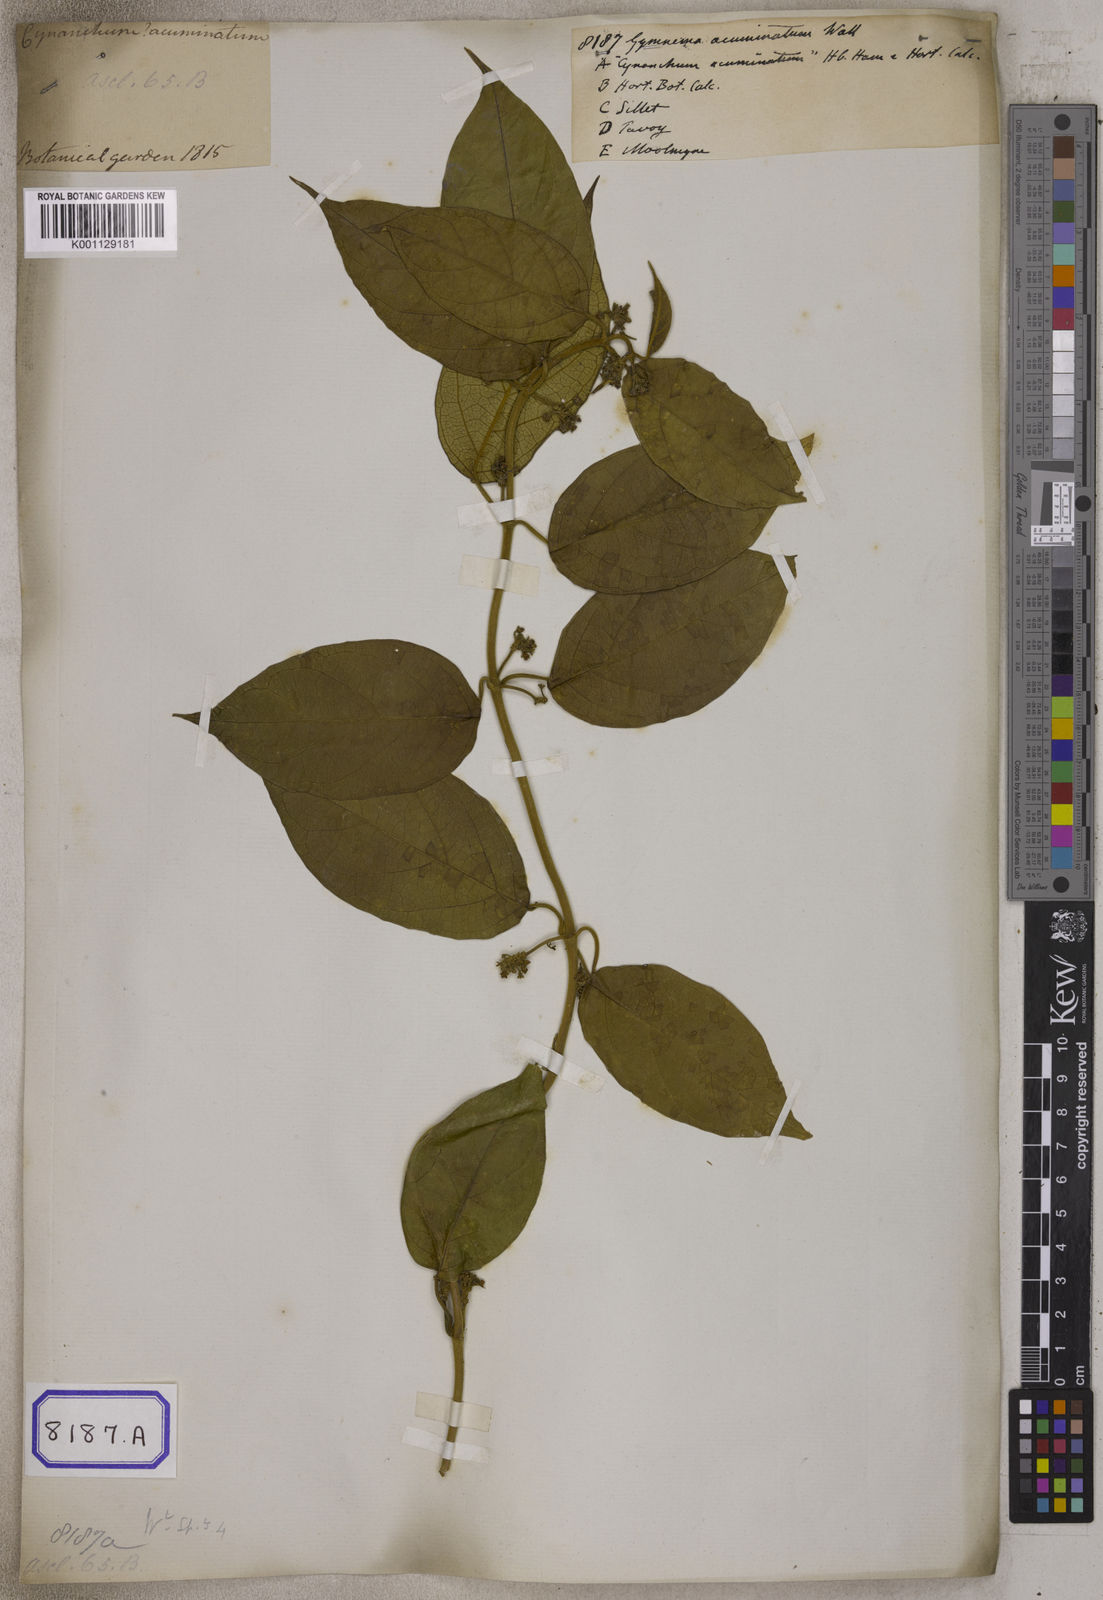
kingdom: Plantae
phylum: Tracheophyta
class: Magnoliopsida
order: Gentianales
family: Apocynaceae
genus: Gymnema
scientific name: Gymnema acuminatum
